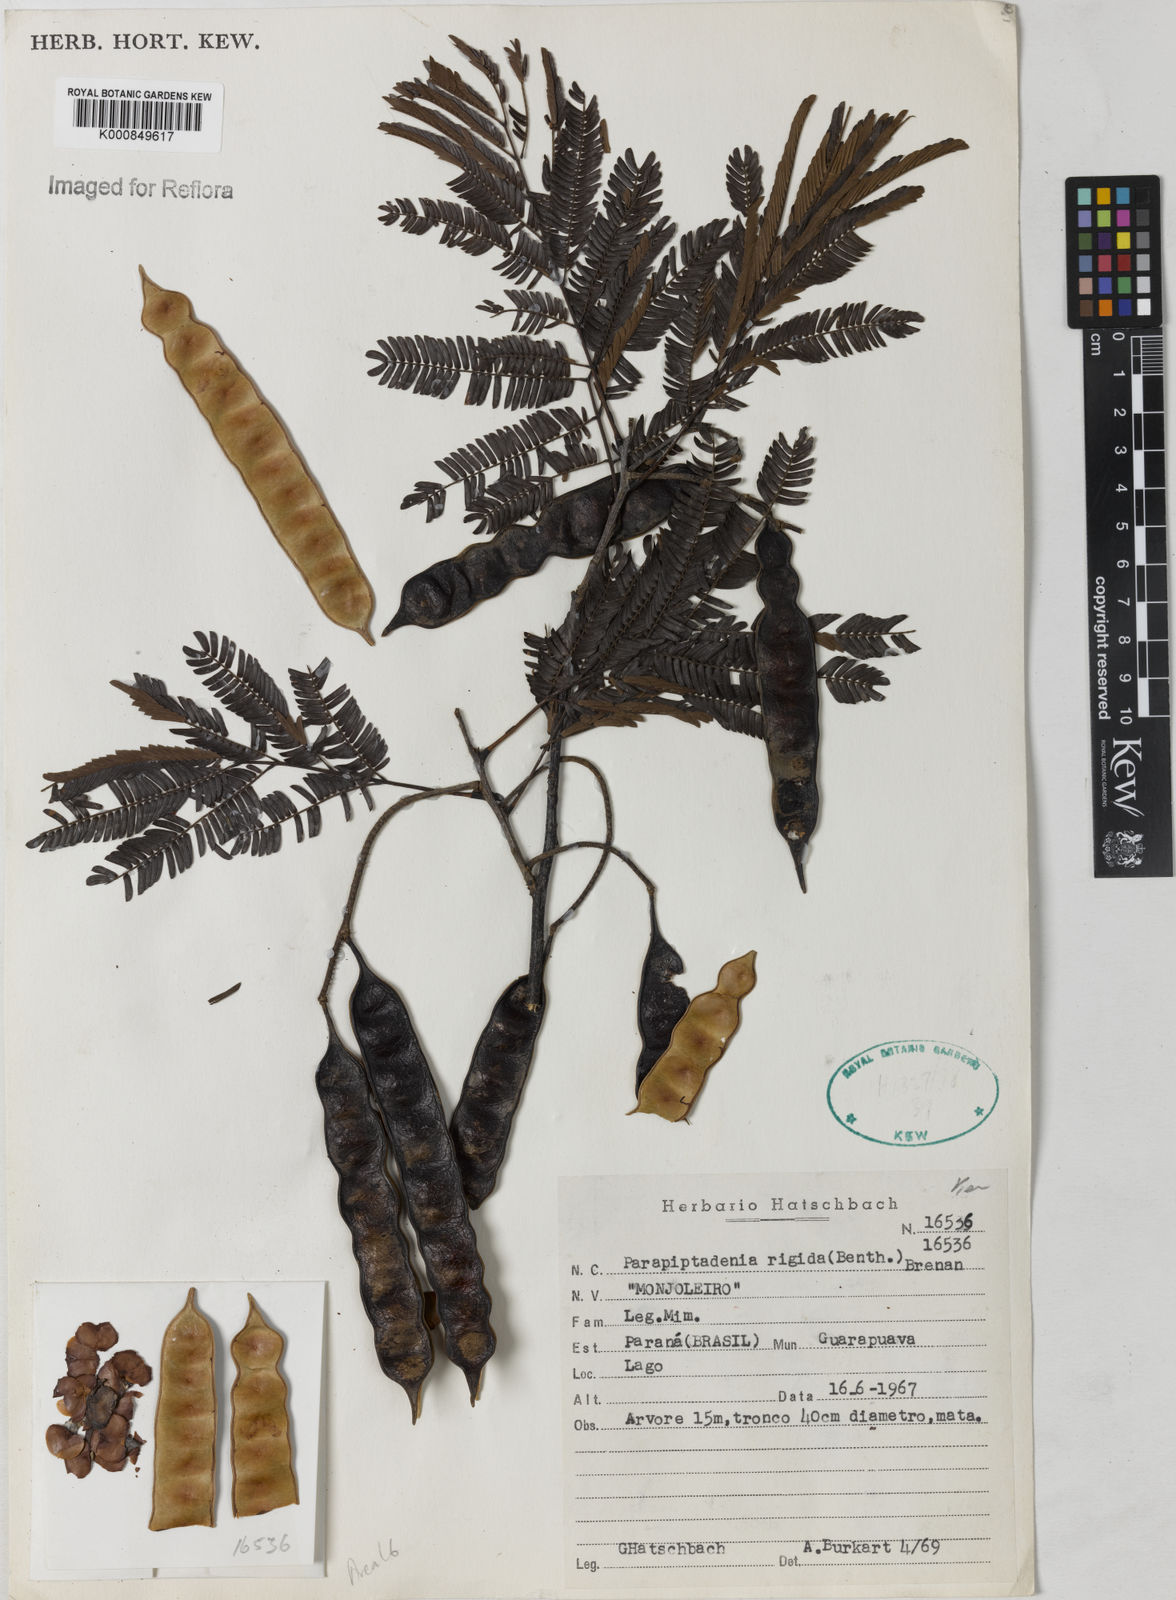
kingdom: Plantae
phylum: Tracheophyta
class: Magnoliopsida
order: Fabales
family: Fabaceae
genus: Parapiptadenia
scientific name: Parapiptadenia rigida
